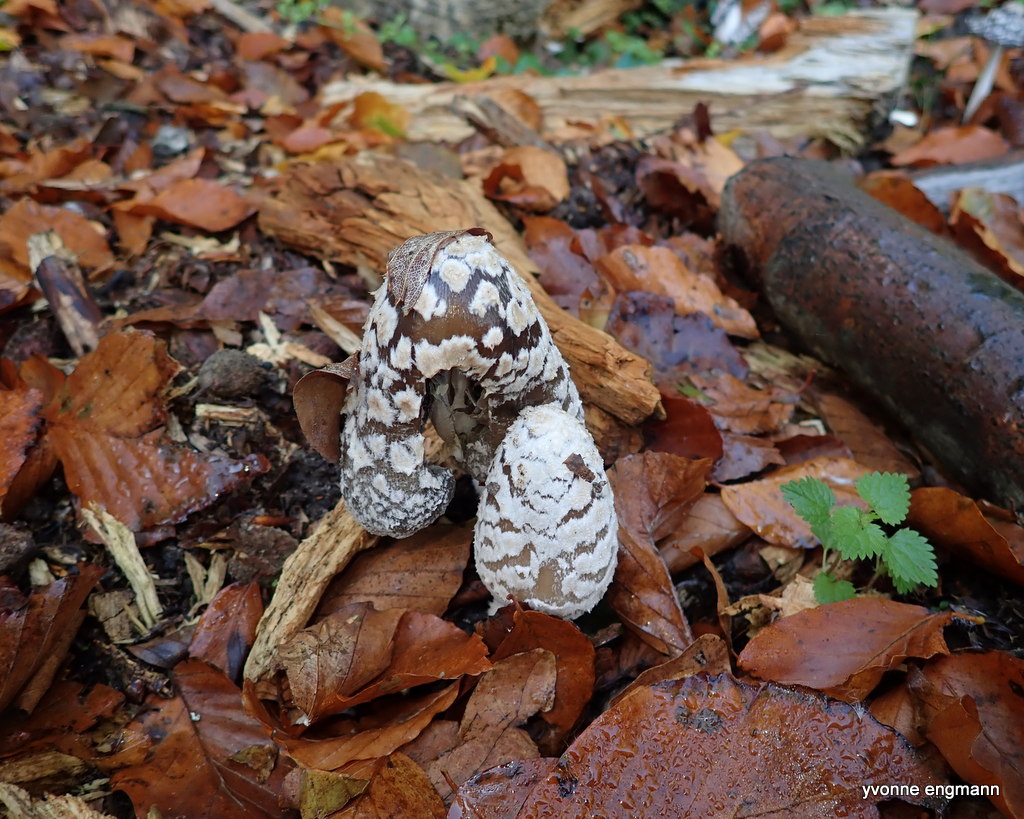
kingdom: Fungi
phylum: Basidiomycota
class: Agaricomycetes
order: Agaricales
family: Psathyrellaceae
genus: Coprinopsis
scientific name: Coprinopsis picacea
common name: skade-blækhat
